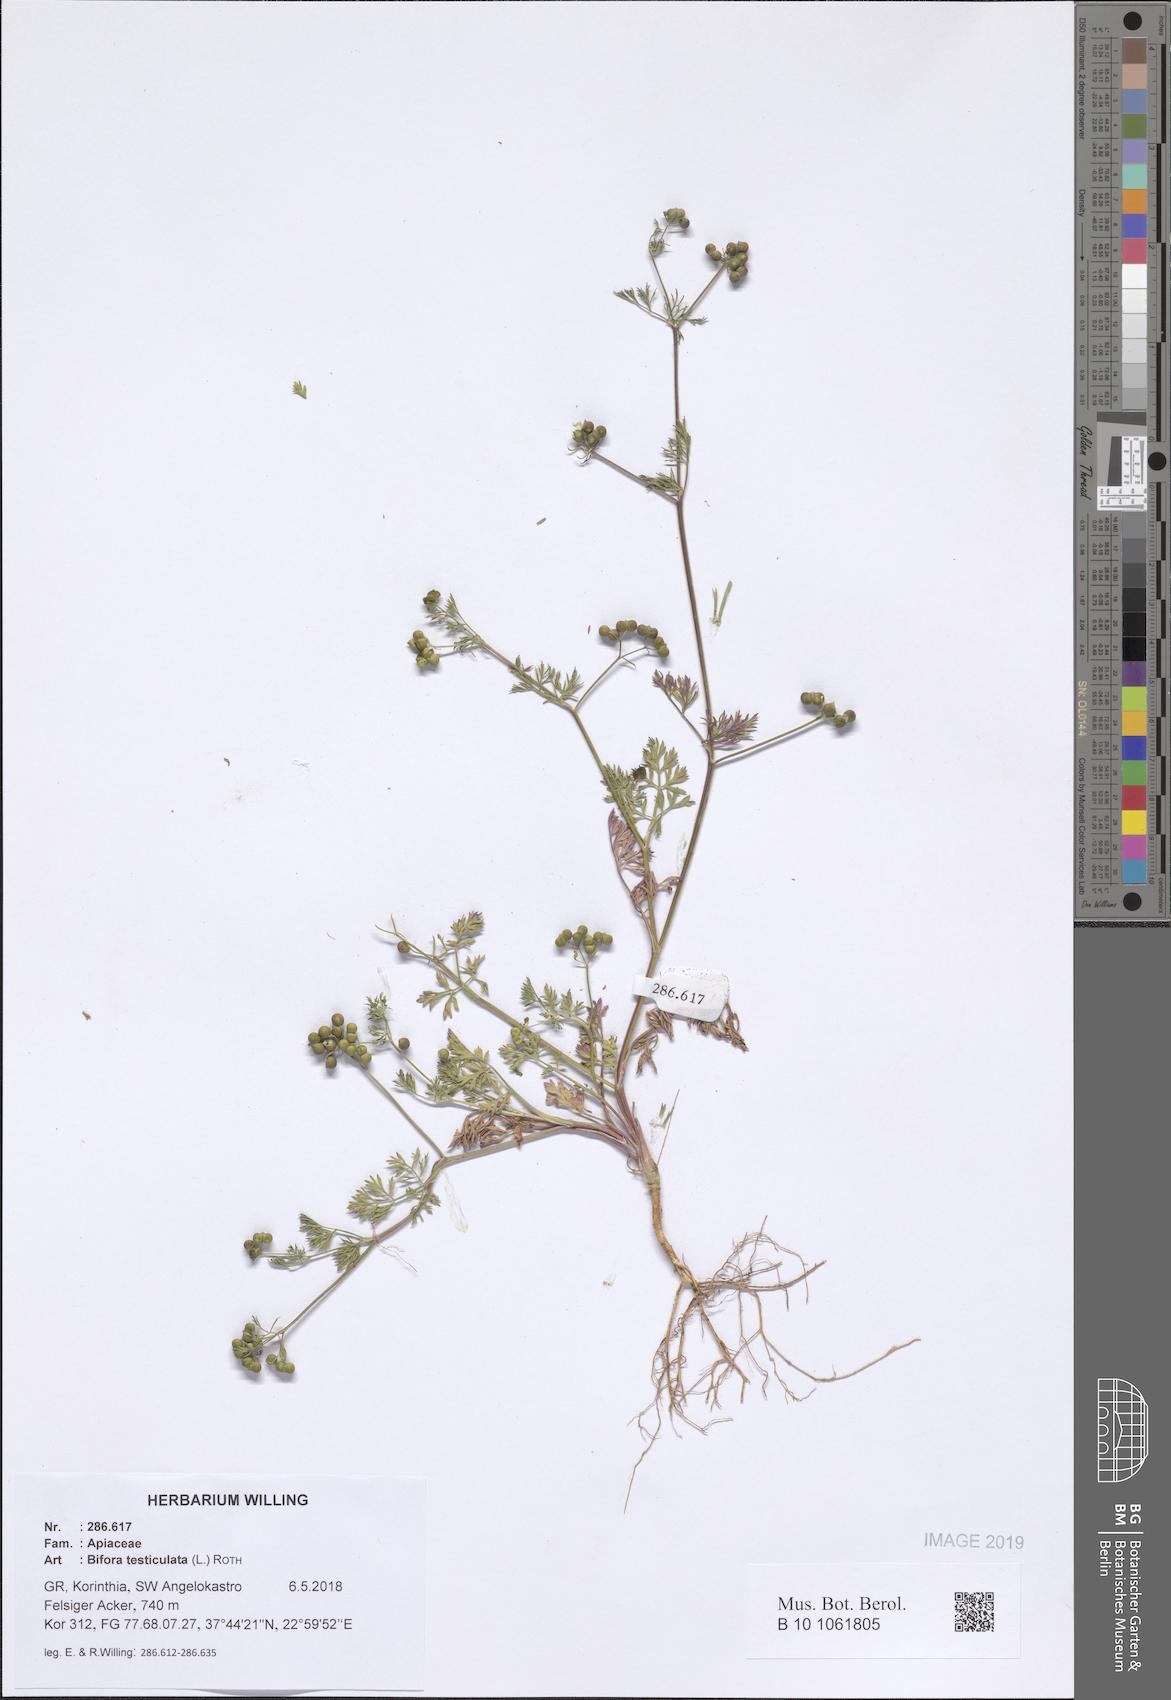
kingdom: Plantae
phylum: Tracheophyta
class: Magnoliopsida
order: Apiales
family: Apiaceae
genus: Bifora
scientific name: Bifora testiculata
